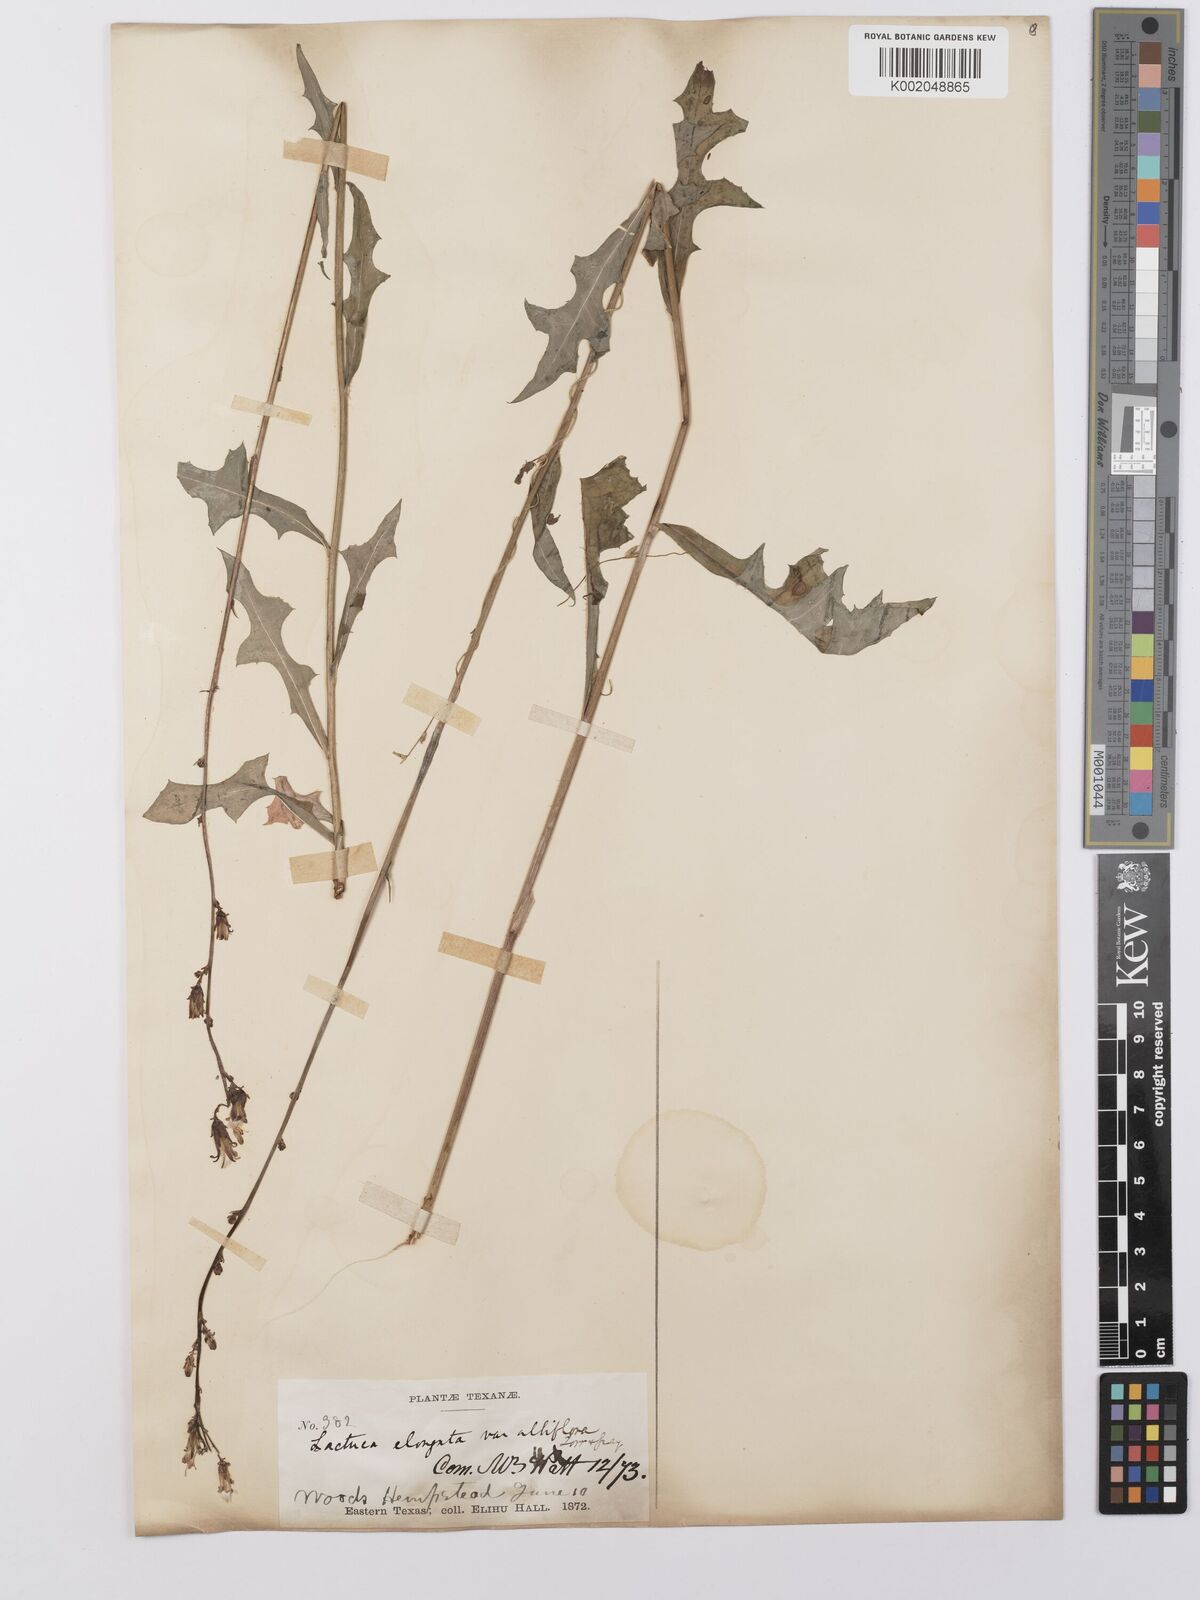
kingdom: Plantae
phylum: Tracheophyta
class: Magnoliopsida
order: Asterales
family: Asteraceae
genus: Lactuca
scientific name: Lactuca canadensis
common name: Canada lettuce
